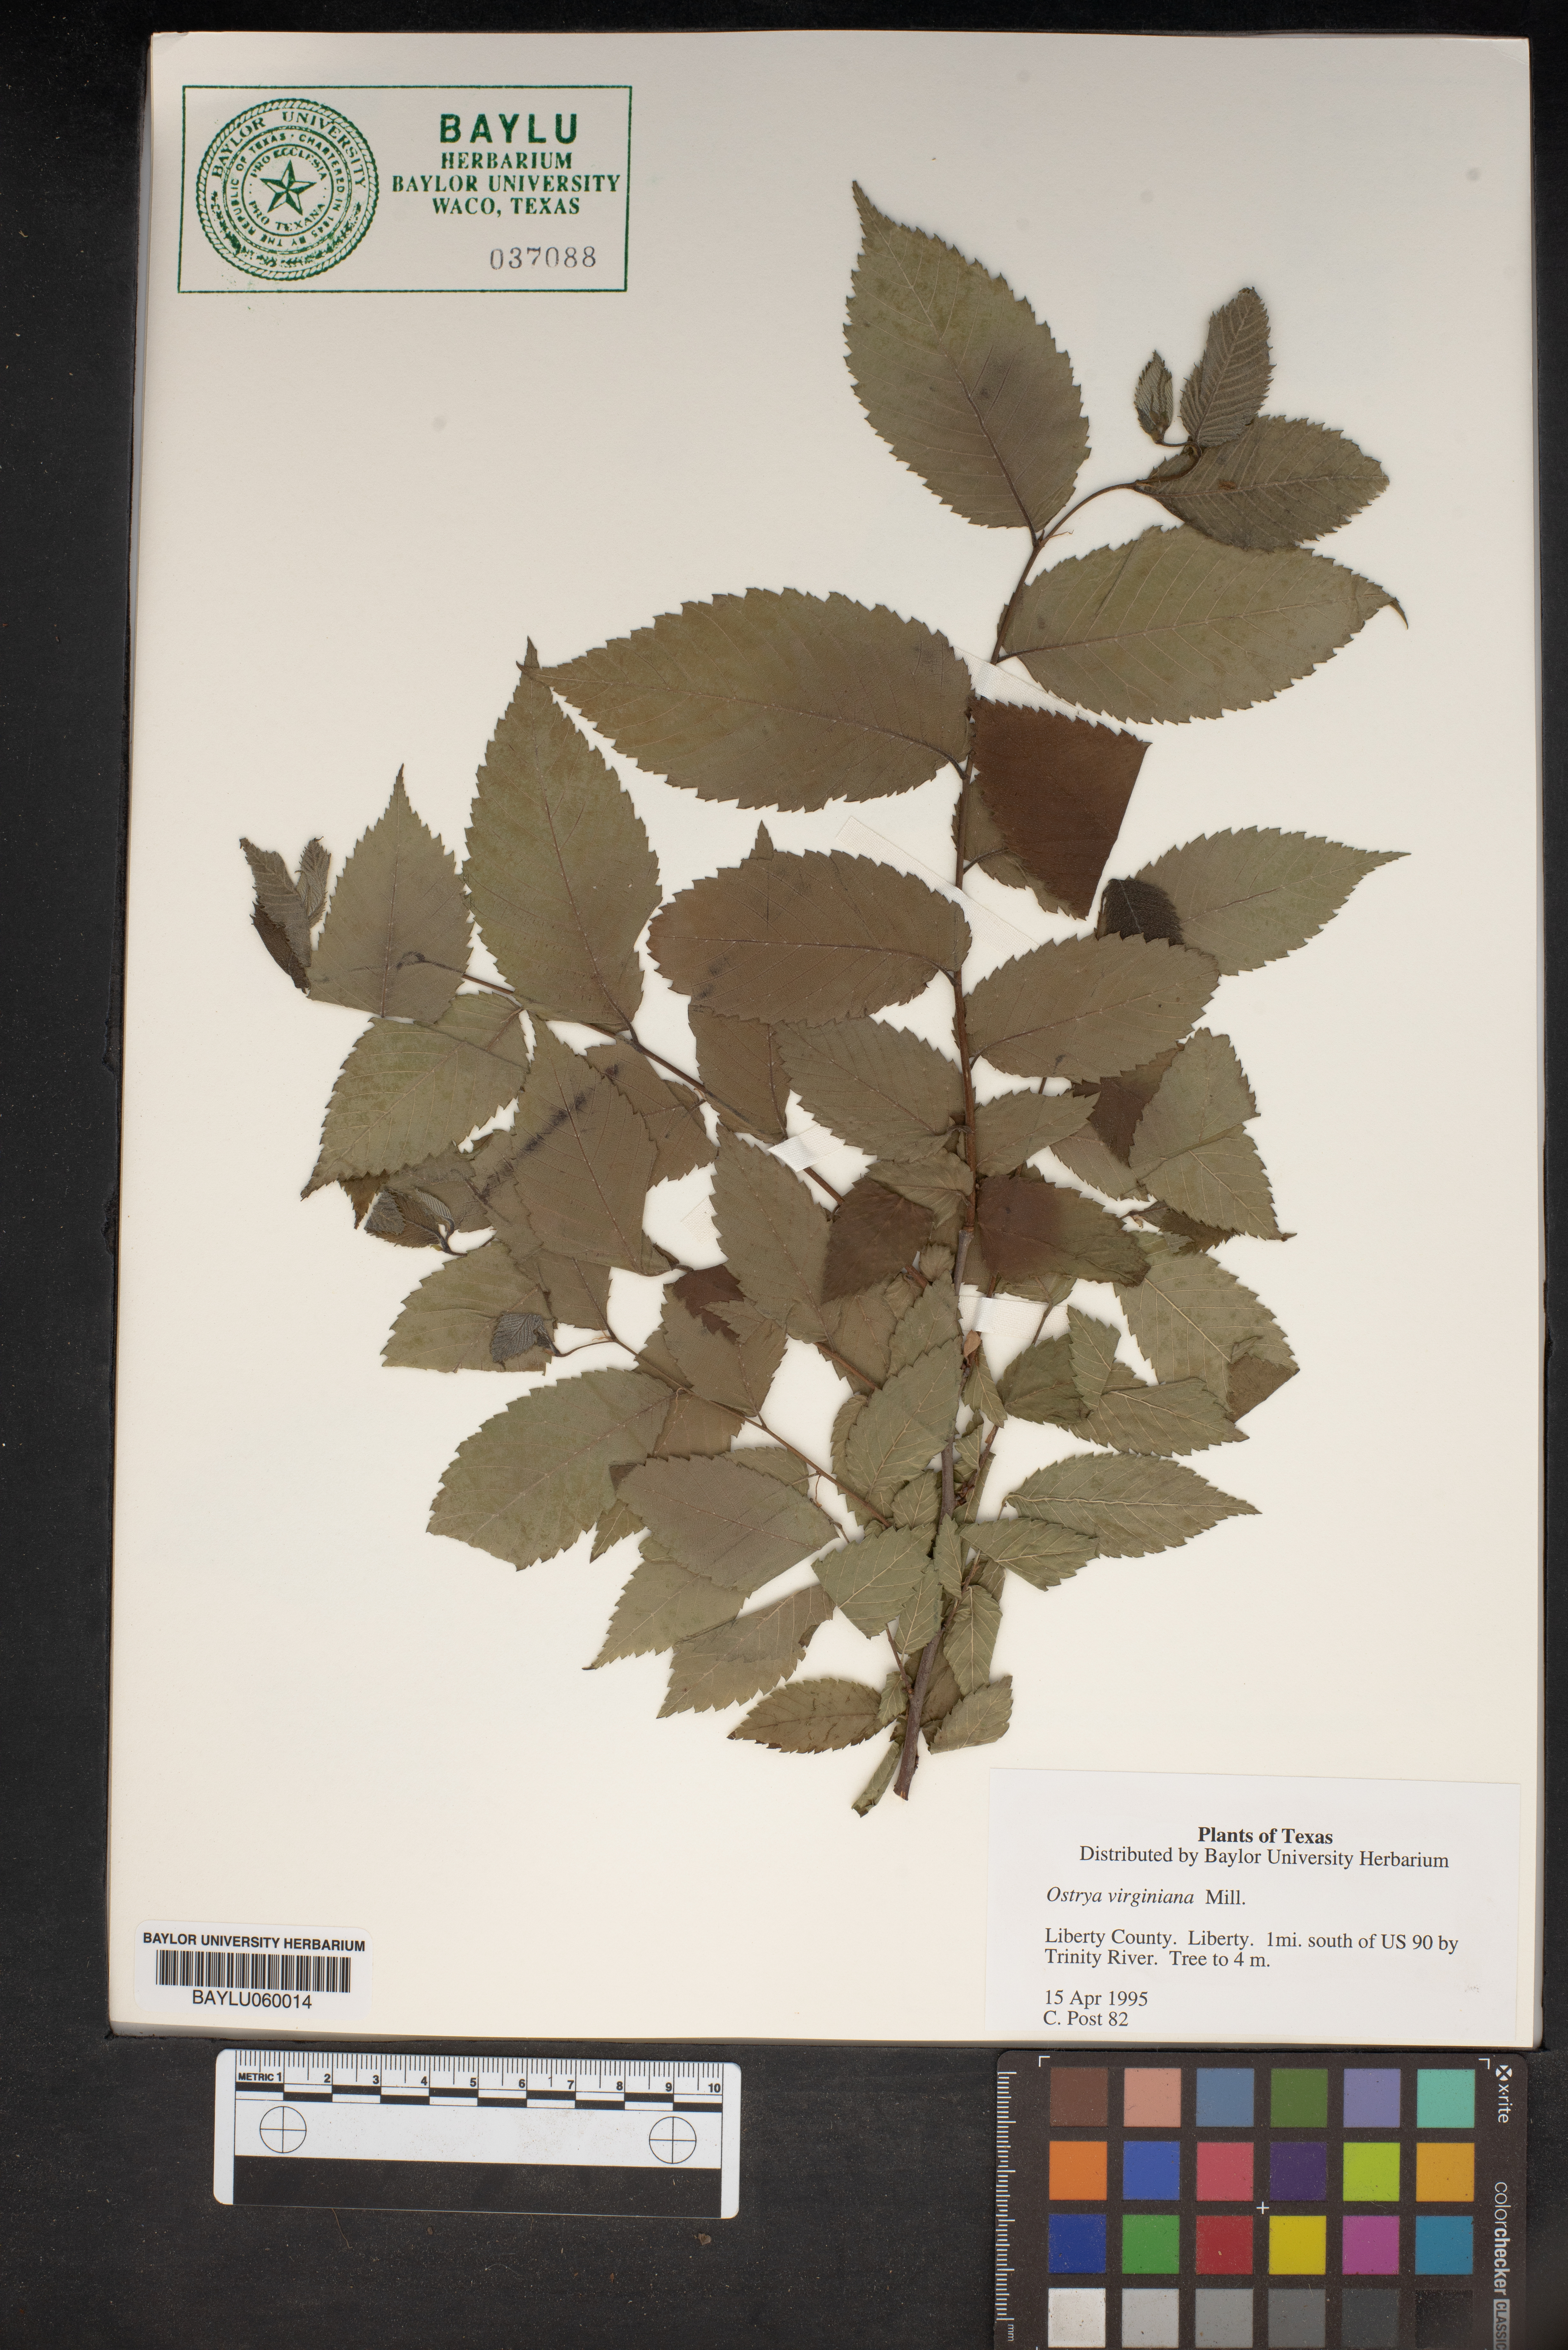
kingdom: Plantae
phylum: Tracheophyta
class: Magnoliopsida
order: Fagales
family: Betulaceae
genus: Ostrya
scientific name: Ostrya virginiana
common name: Ironwood
